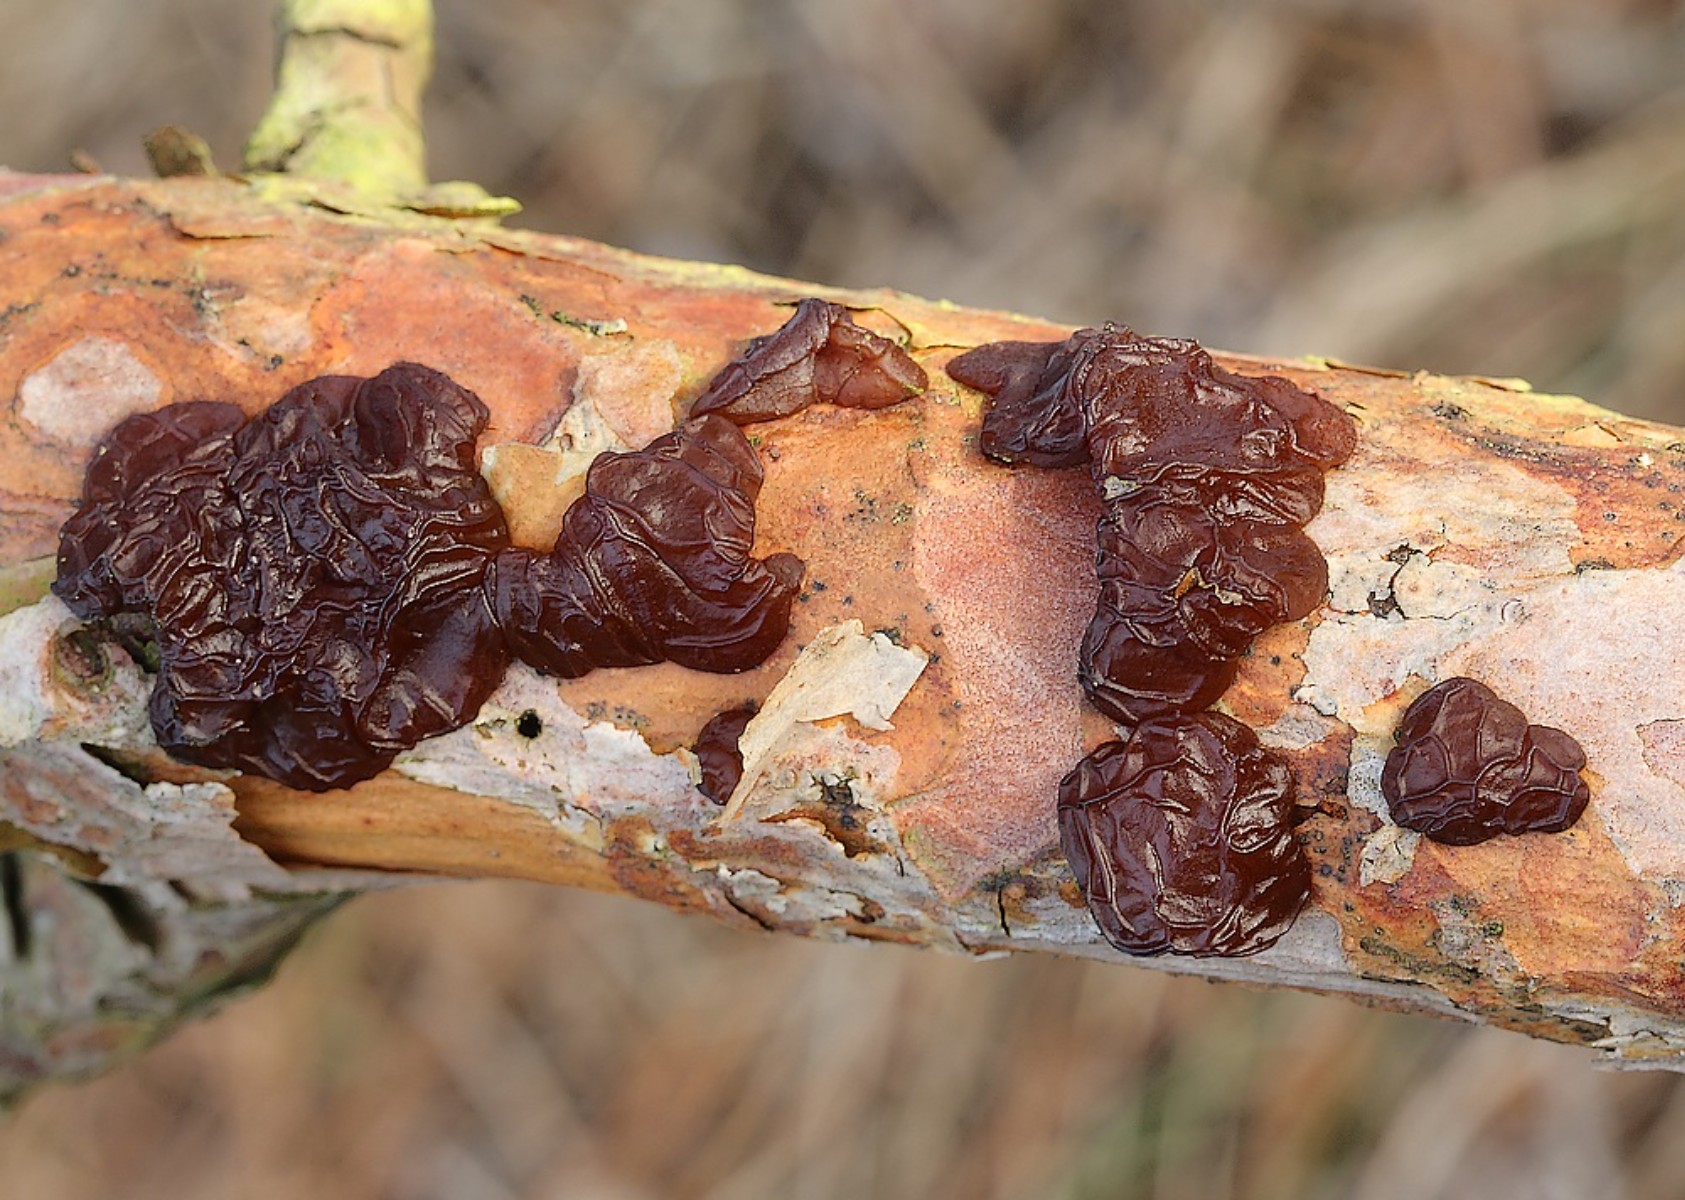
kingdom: Fungi
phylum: Basidiomycota
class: Agaricomycetes
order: Auriculariales
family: Auriculariaceae
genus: Exidia
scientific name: Exidia saccharina
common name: kandis-bævretop
